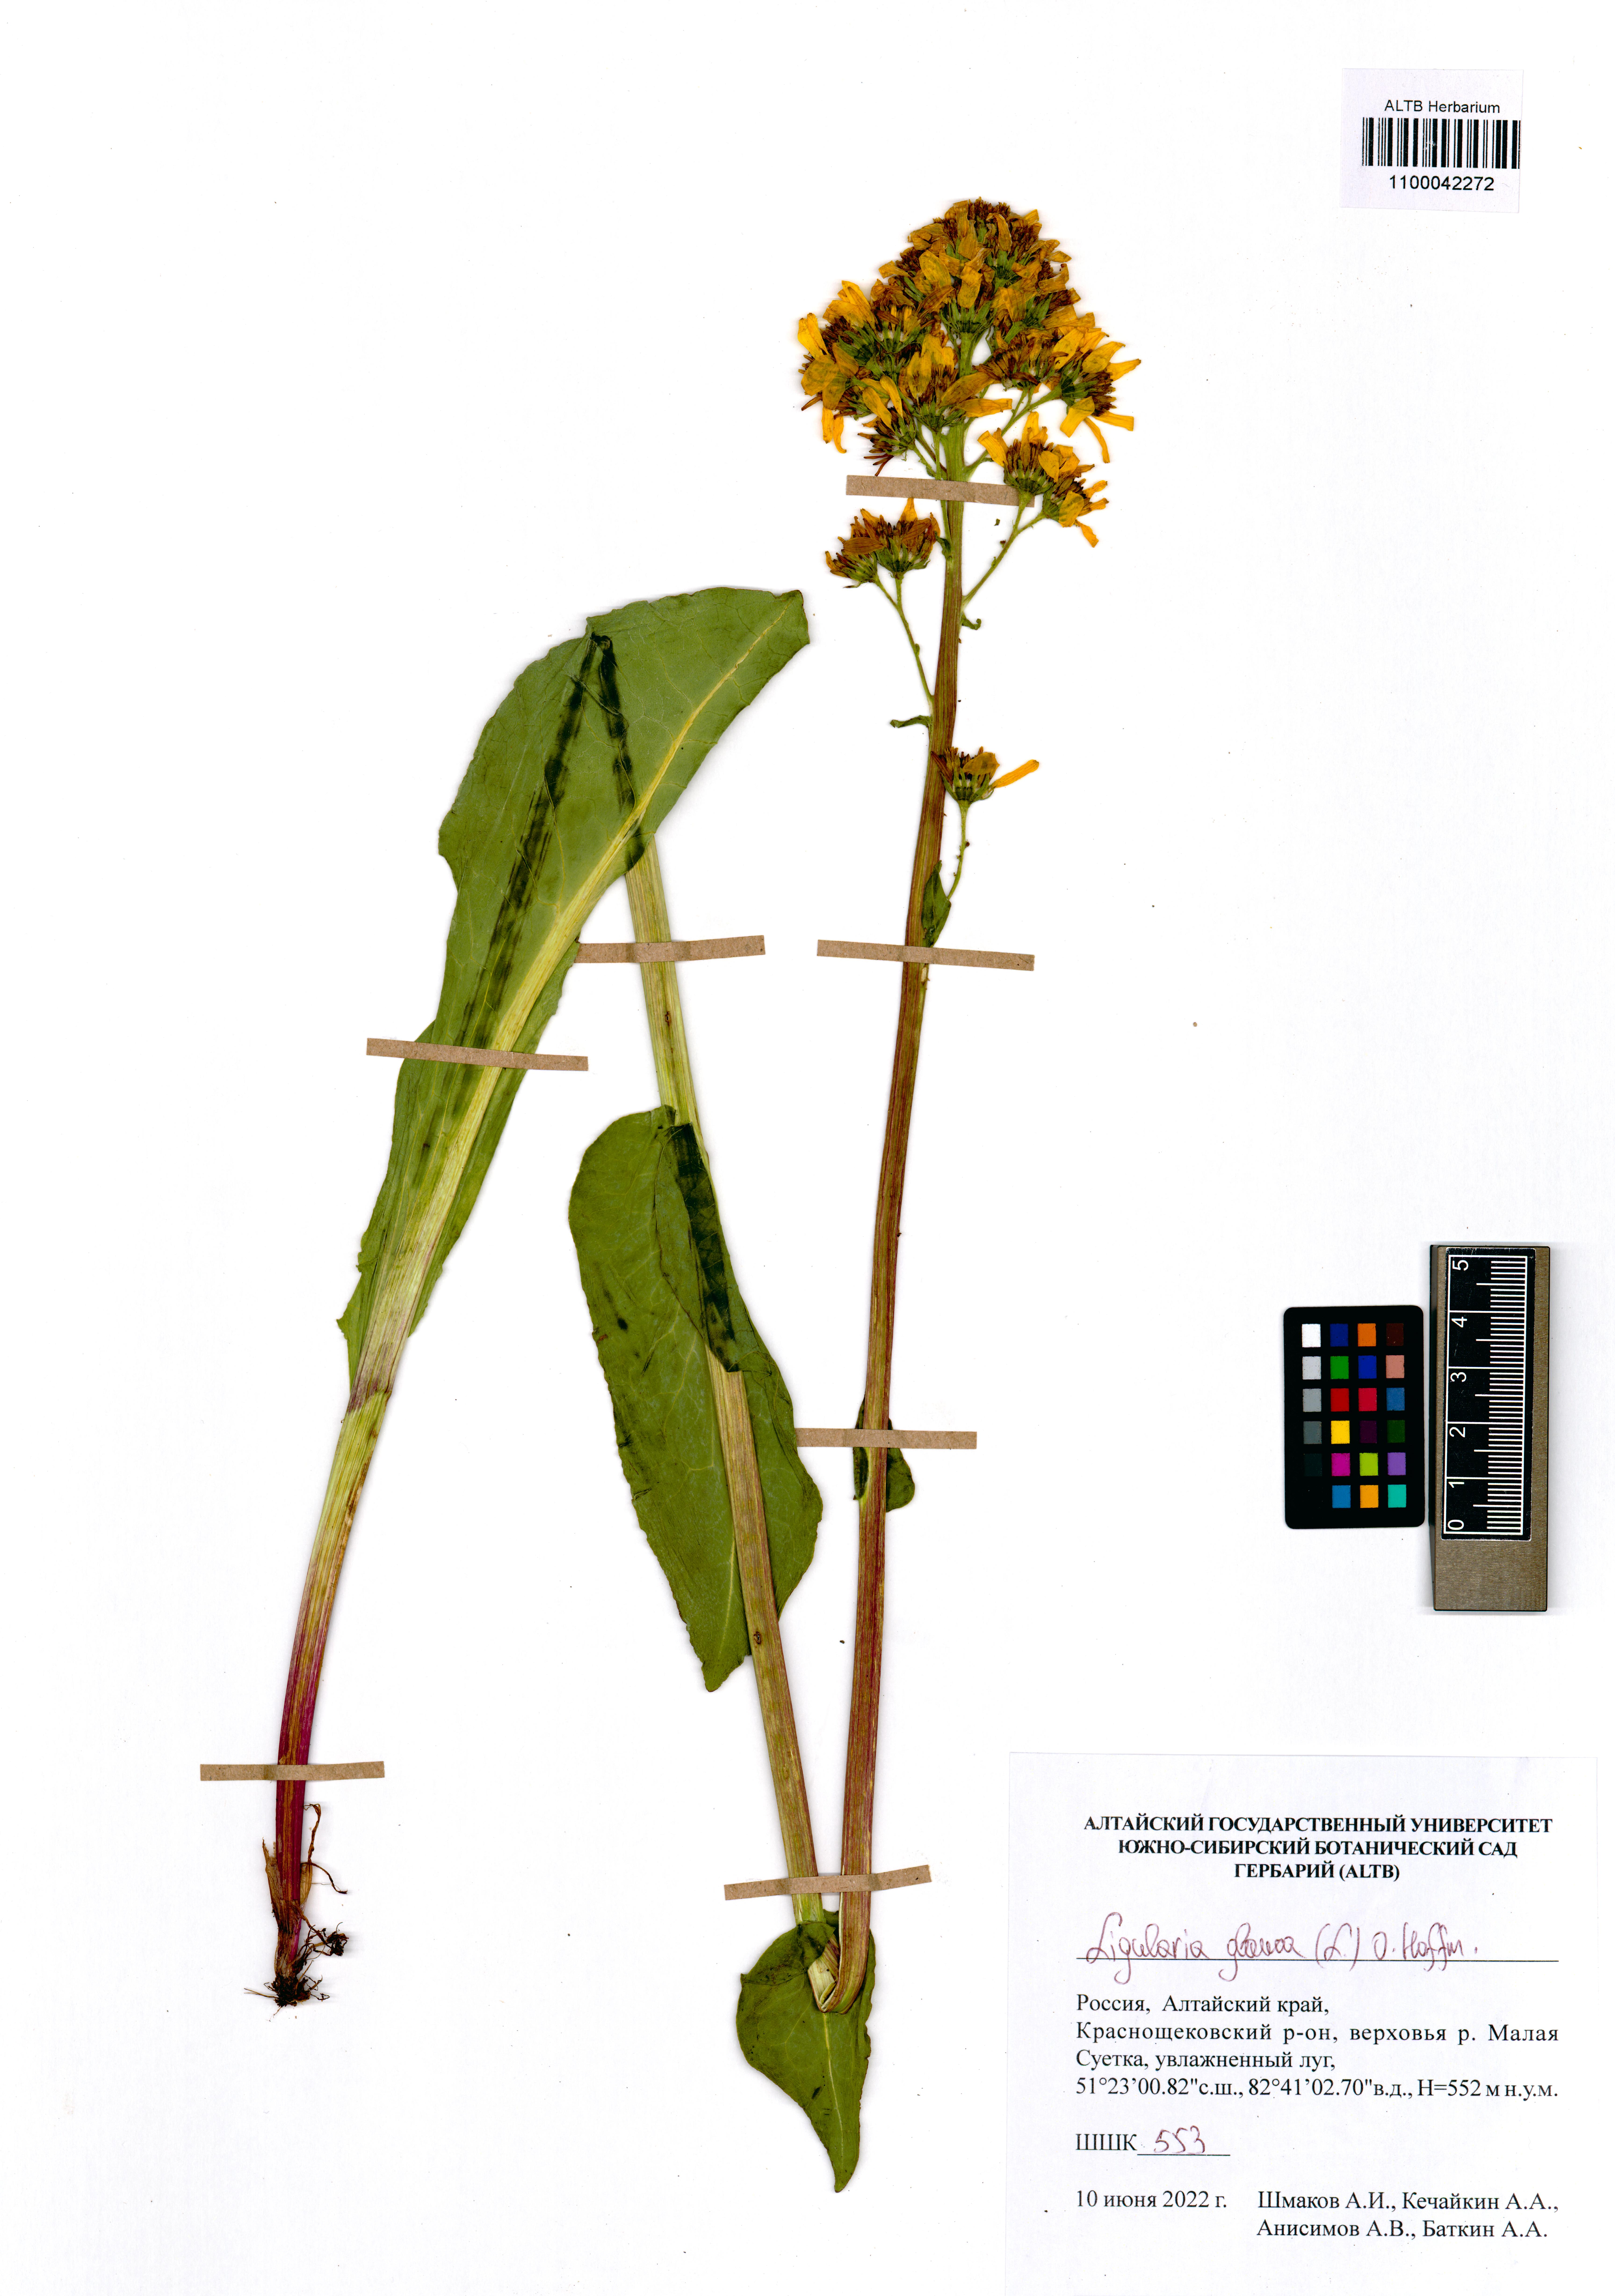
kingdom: Plantae
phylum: Tracheophyta
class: Magnoliopsida
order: Asterales
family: Asteraceae
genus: Ligularia
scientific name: Ligularia glauca
